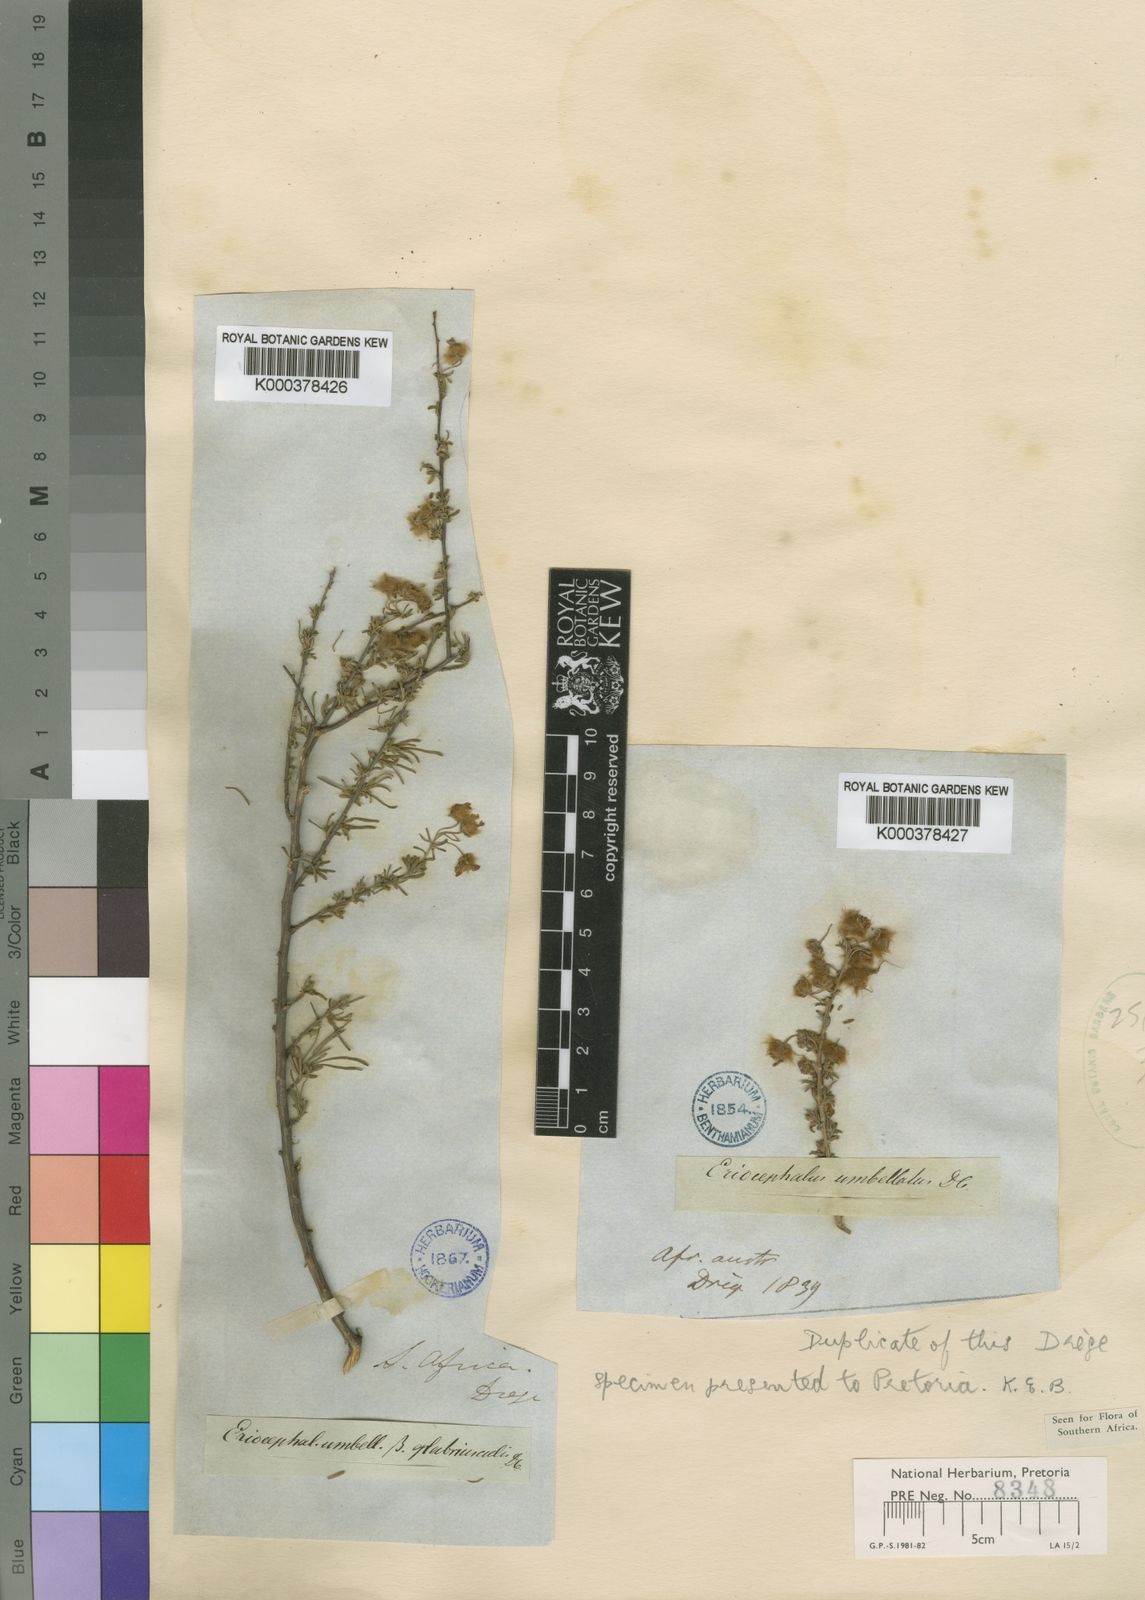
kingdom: Plantae
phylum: Tracheophyta
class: Magnoliopsida
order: Asterales
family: Asteraceae
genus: Eriocephalus
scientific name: Eriocephalus
